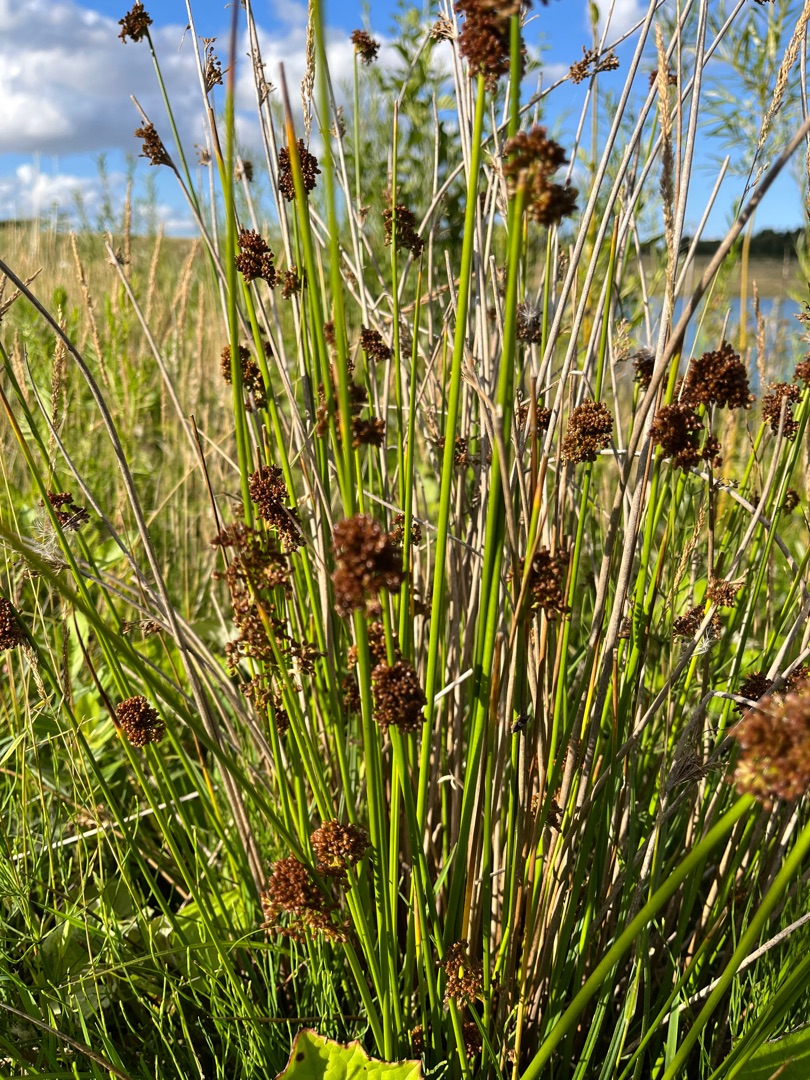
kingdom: Plantae
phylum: Tracheophyta
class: Liliopsida
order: Poales
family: Juncaceae
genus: Juncus
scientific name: Juncus effusus
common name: Lyse-siv
